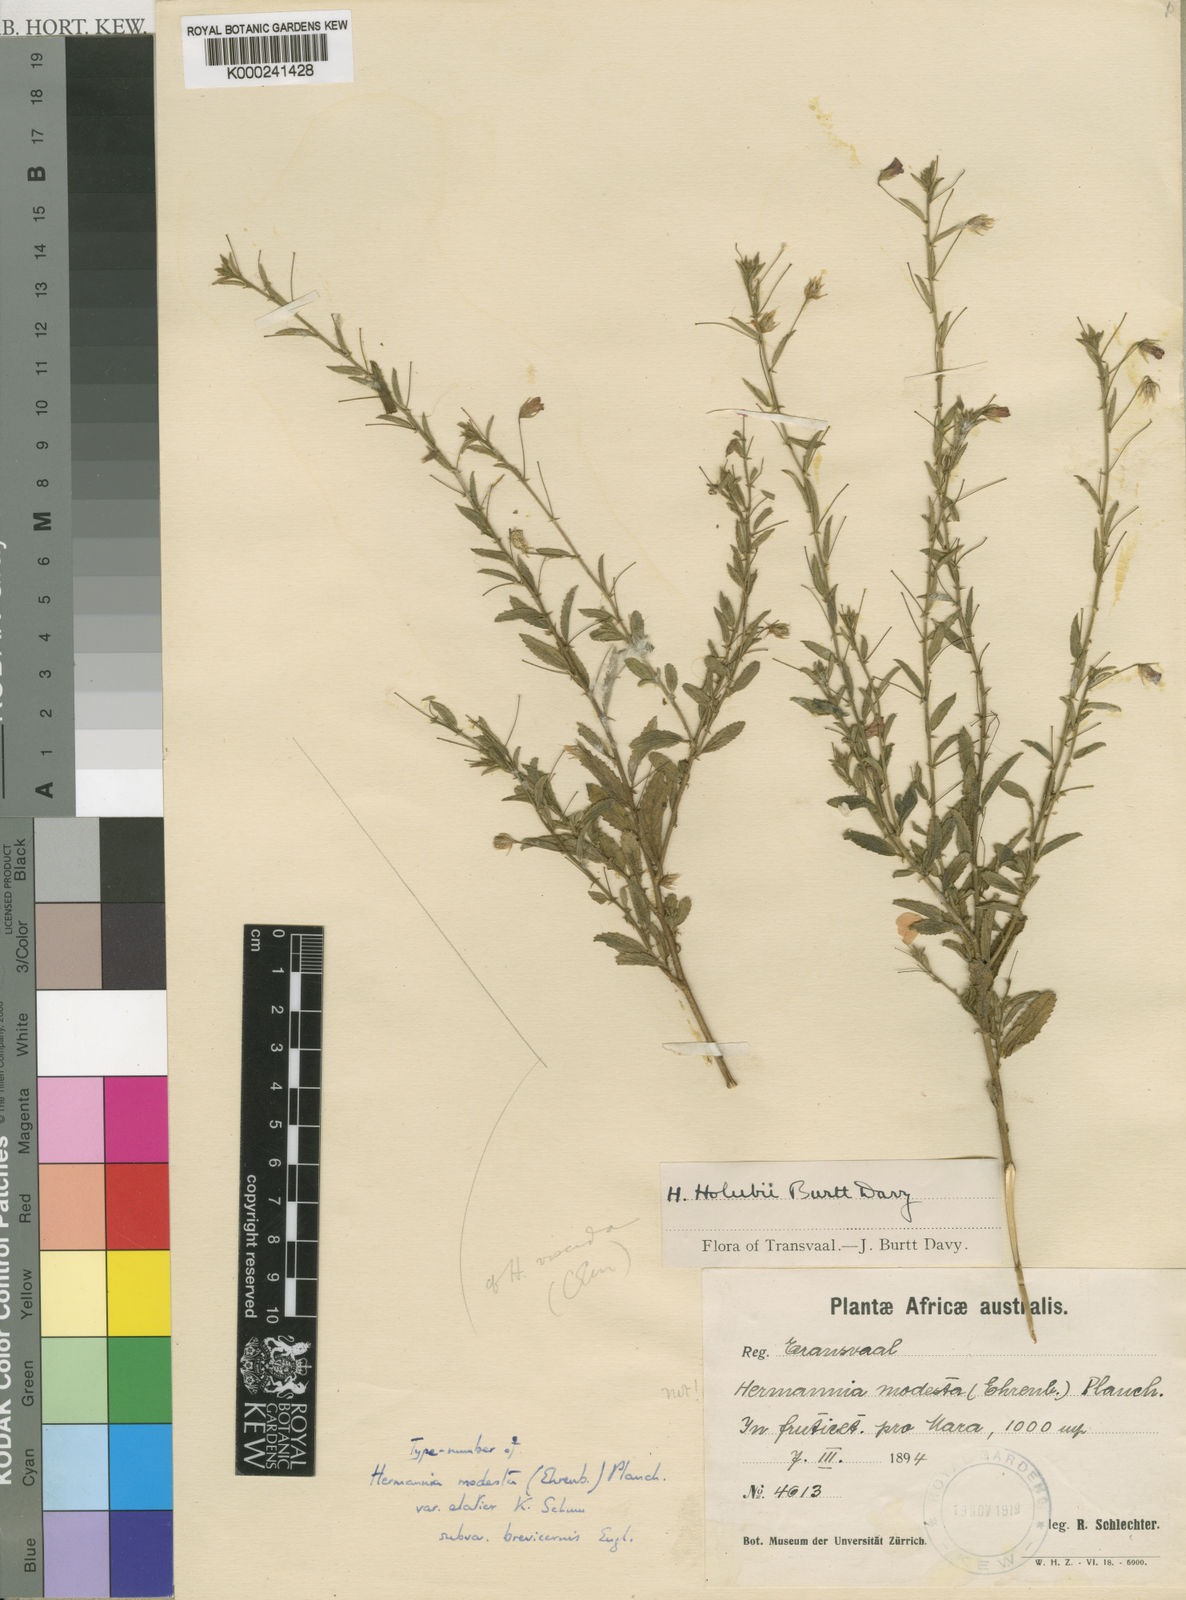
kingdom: Plantae
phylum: Tracheophyta
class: Magnoliopsida
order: Malvales
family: Malvaceae
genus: Hermannia
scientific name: Hermannia modesta
